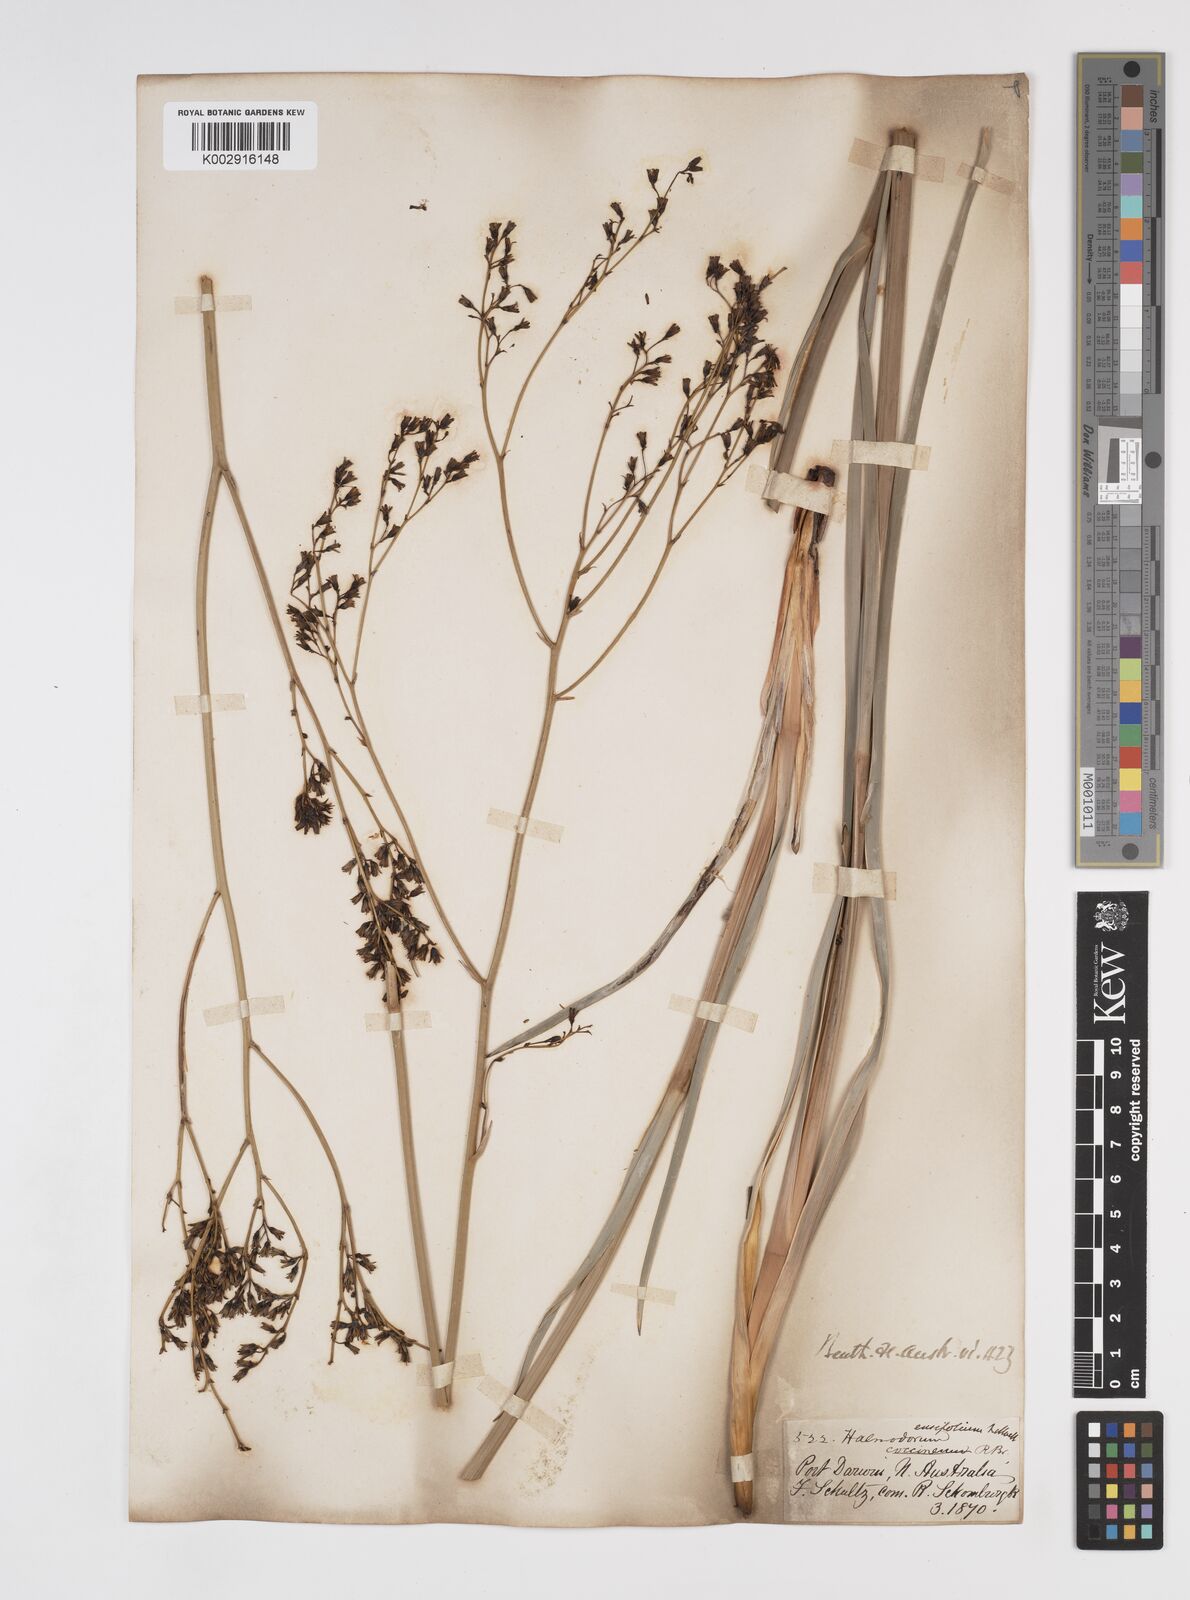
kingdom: Plantae
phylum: Tracheophyta
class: Liliopsida
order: Commelinales
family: Haemodoraceae
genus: Haemodorum
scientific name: Haemodorum ensifolium
